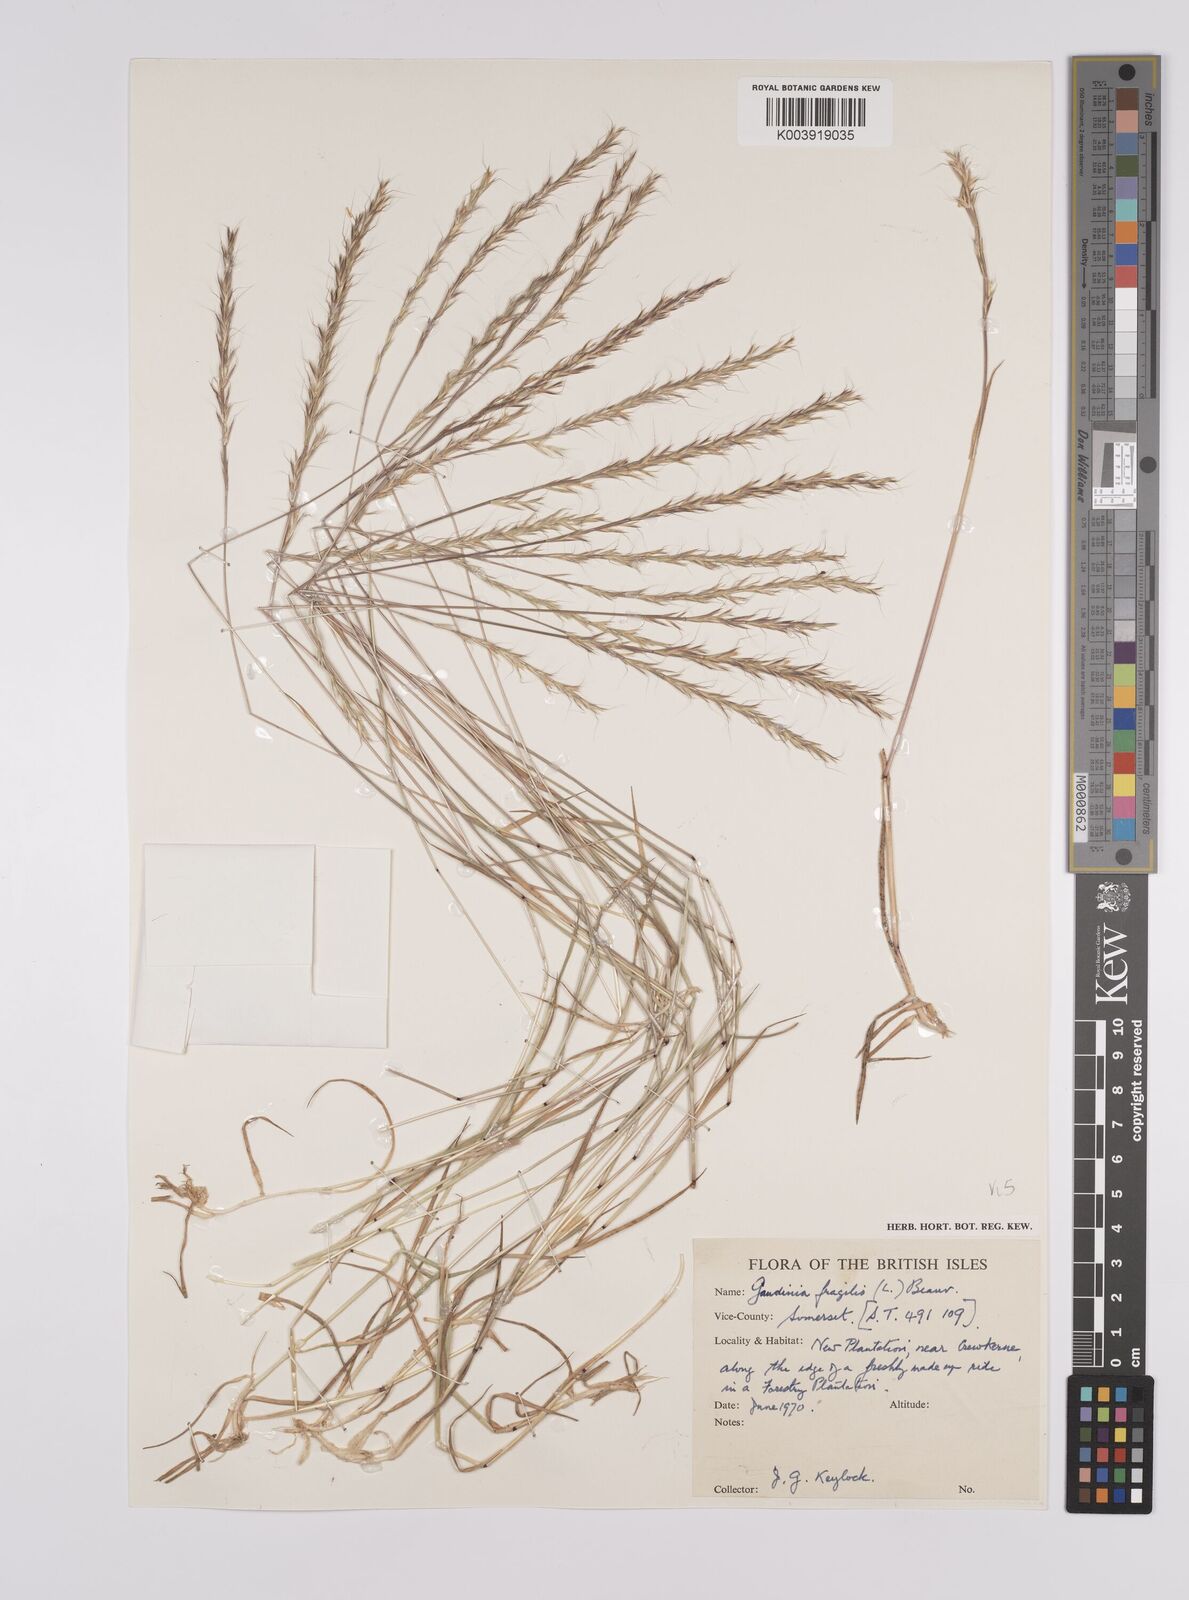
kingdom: Plantae
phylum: Tracheophyta
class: Liliopsida
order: Poales
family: Poaceae
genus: Gaudinia
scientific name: Gaudinia fragilis
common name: French oat-grass
